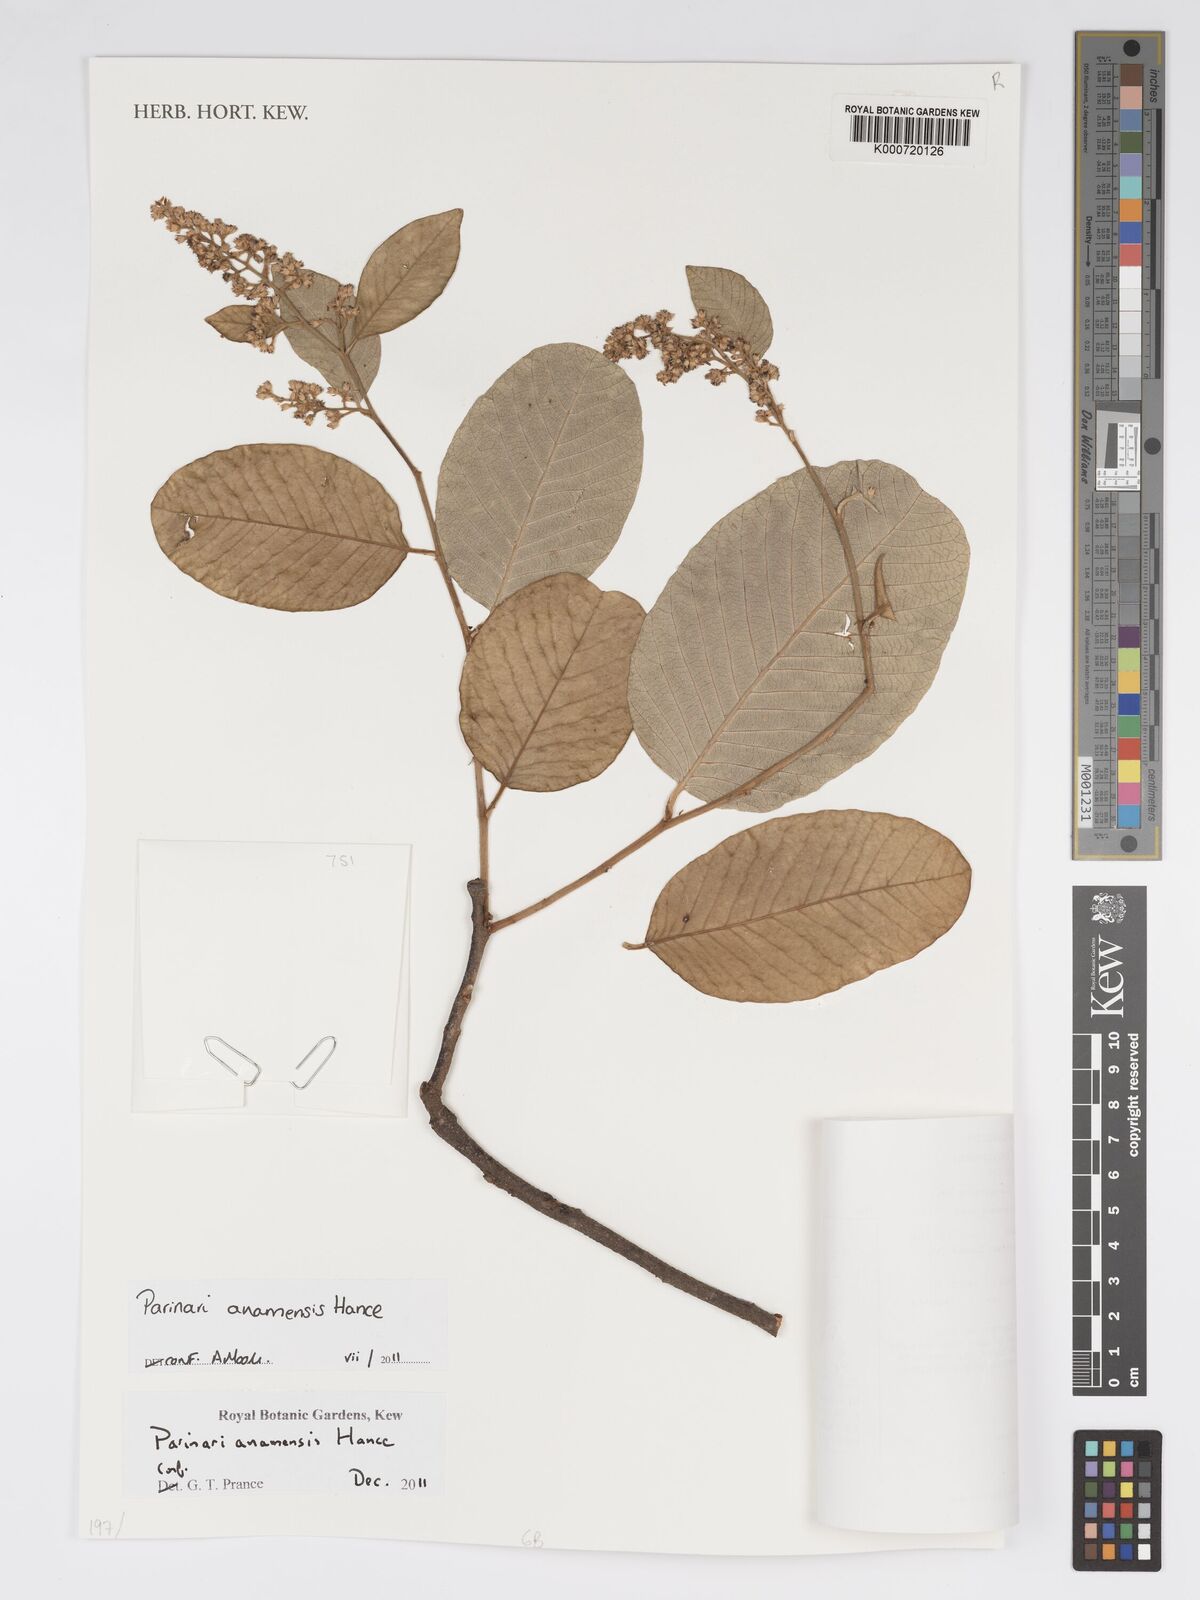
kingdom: Plantae
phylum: Tracheophyta
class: Magnoliopsida
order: Malpighiales
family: Chrysobalanaceae
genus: Parinari
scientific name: Parinari anamensis
